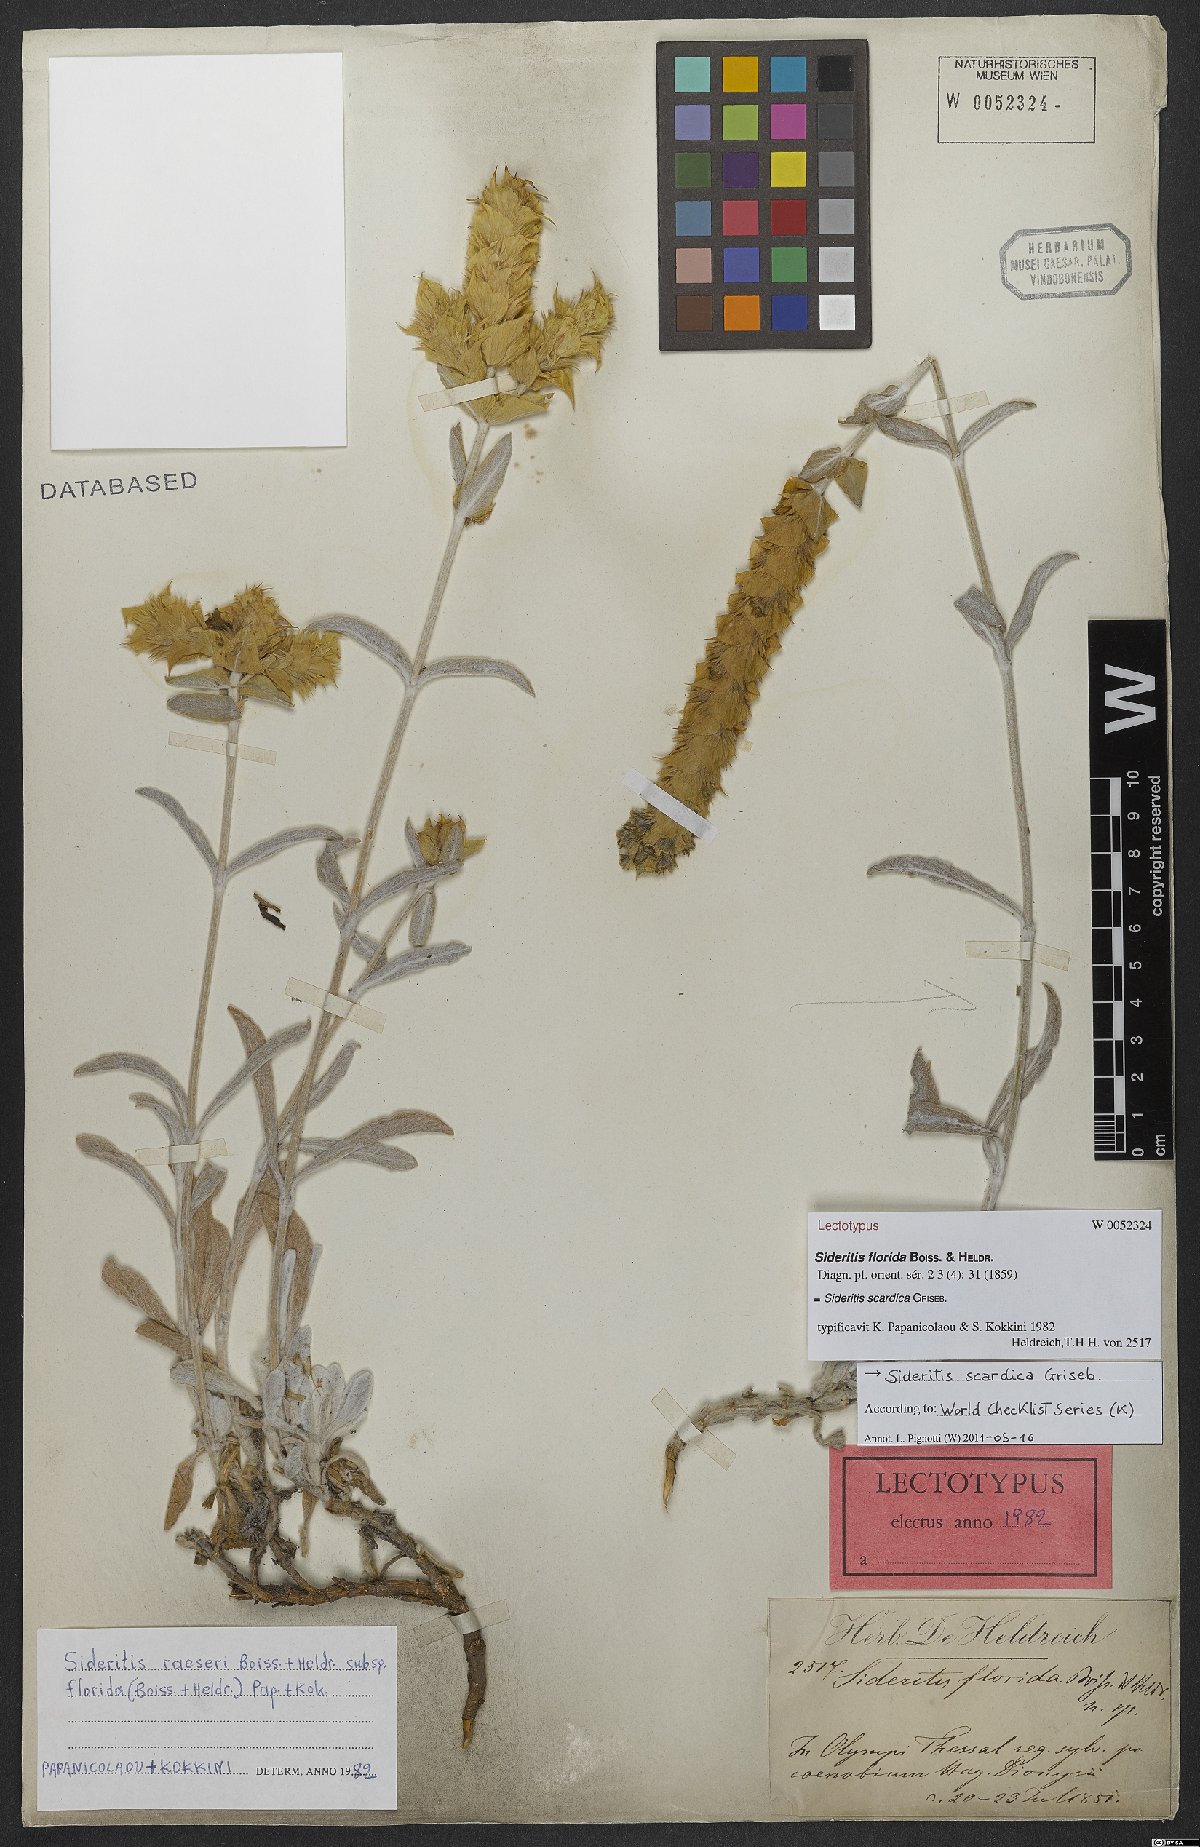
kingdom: Plantae
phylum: Tracheophyta
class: Magnoliopsida
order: Lamiales
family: Lamiaceae
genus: Sideritis
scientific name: Sideritis scardica
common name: Greek mountain tea
